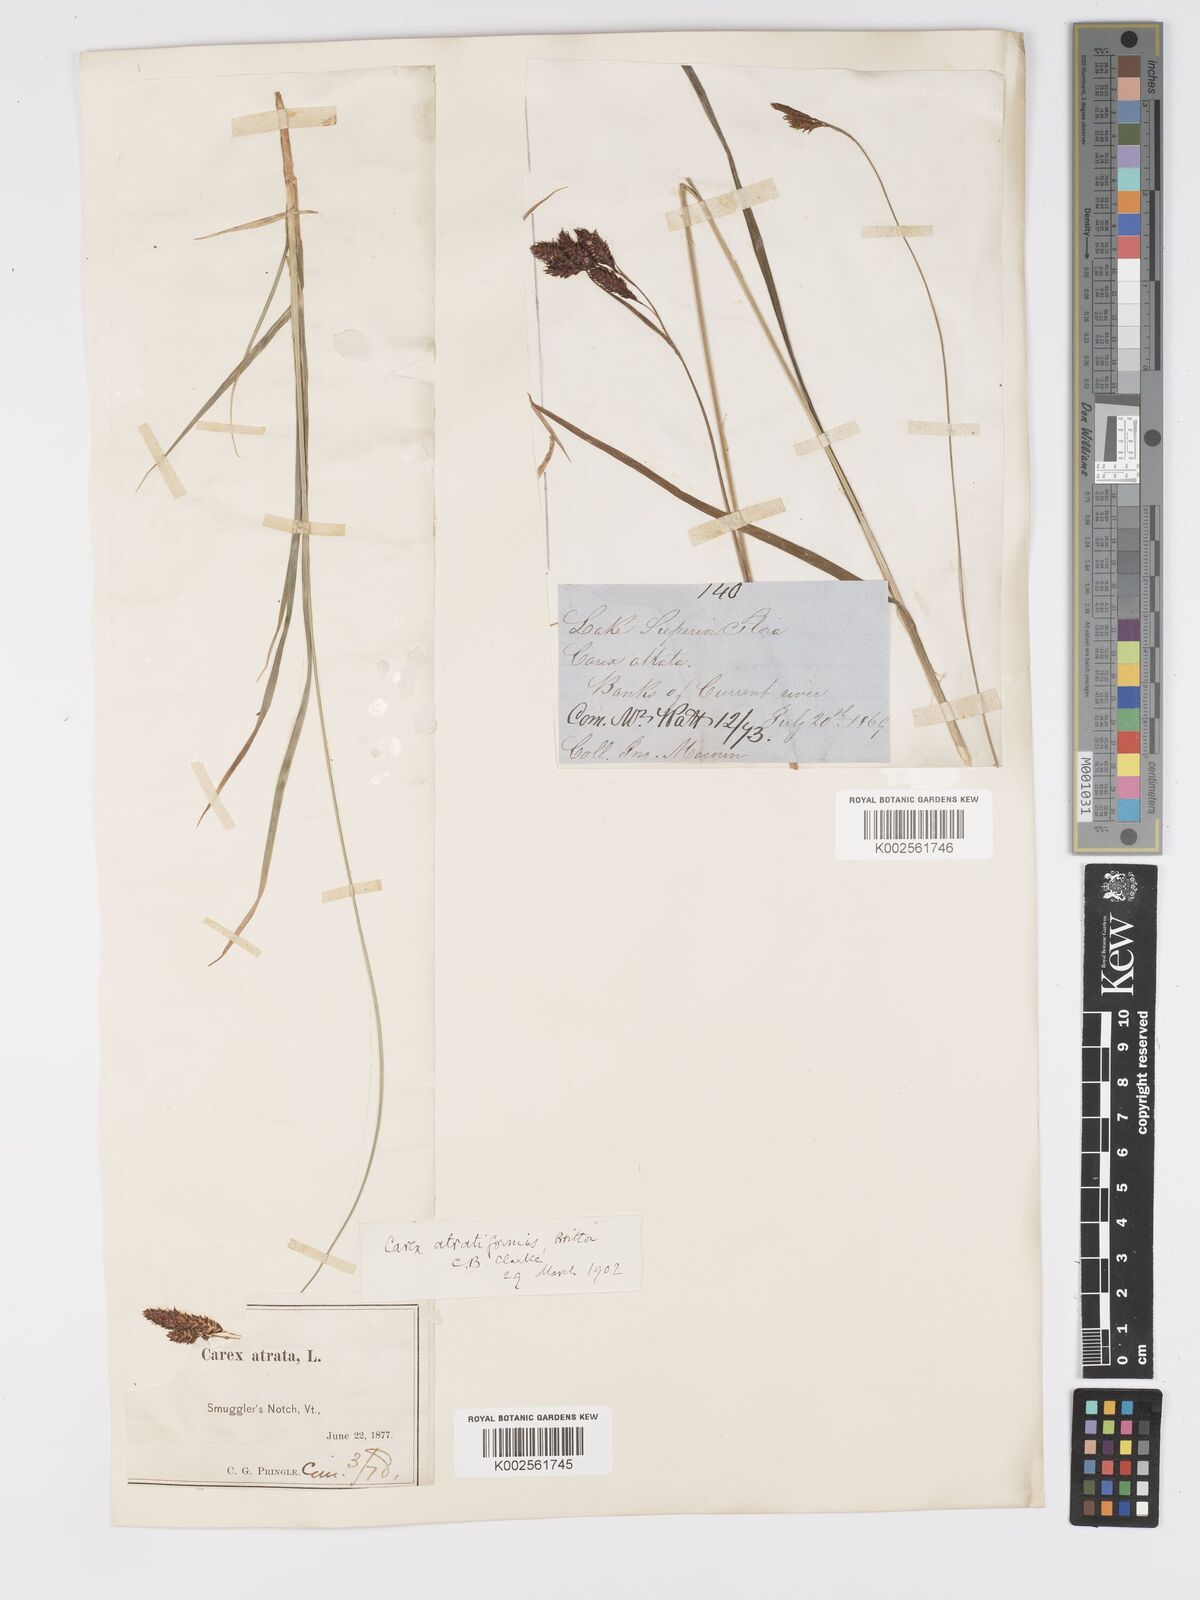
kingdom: Plantae
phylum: Tracheophyta
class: Liliopsida
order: Poales
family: Cyperaceae
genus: Carex
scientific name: Carex atratiformis
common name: Black sedge
